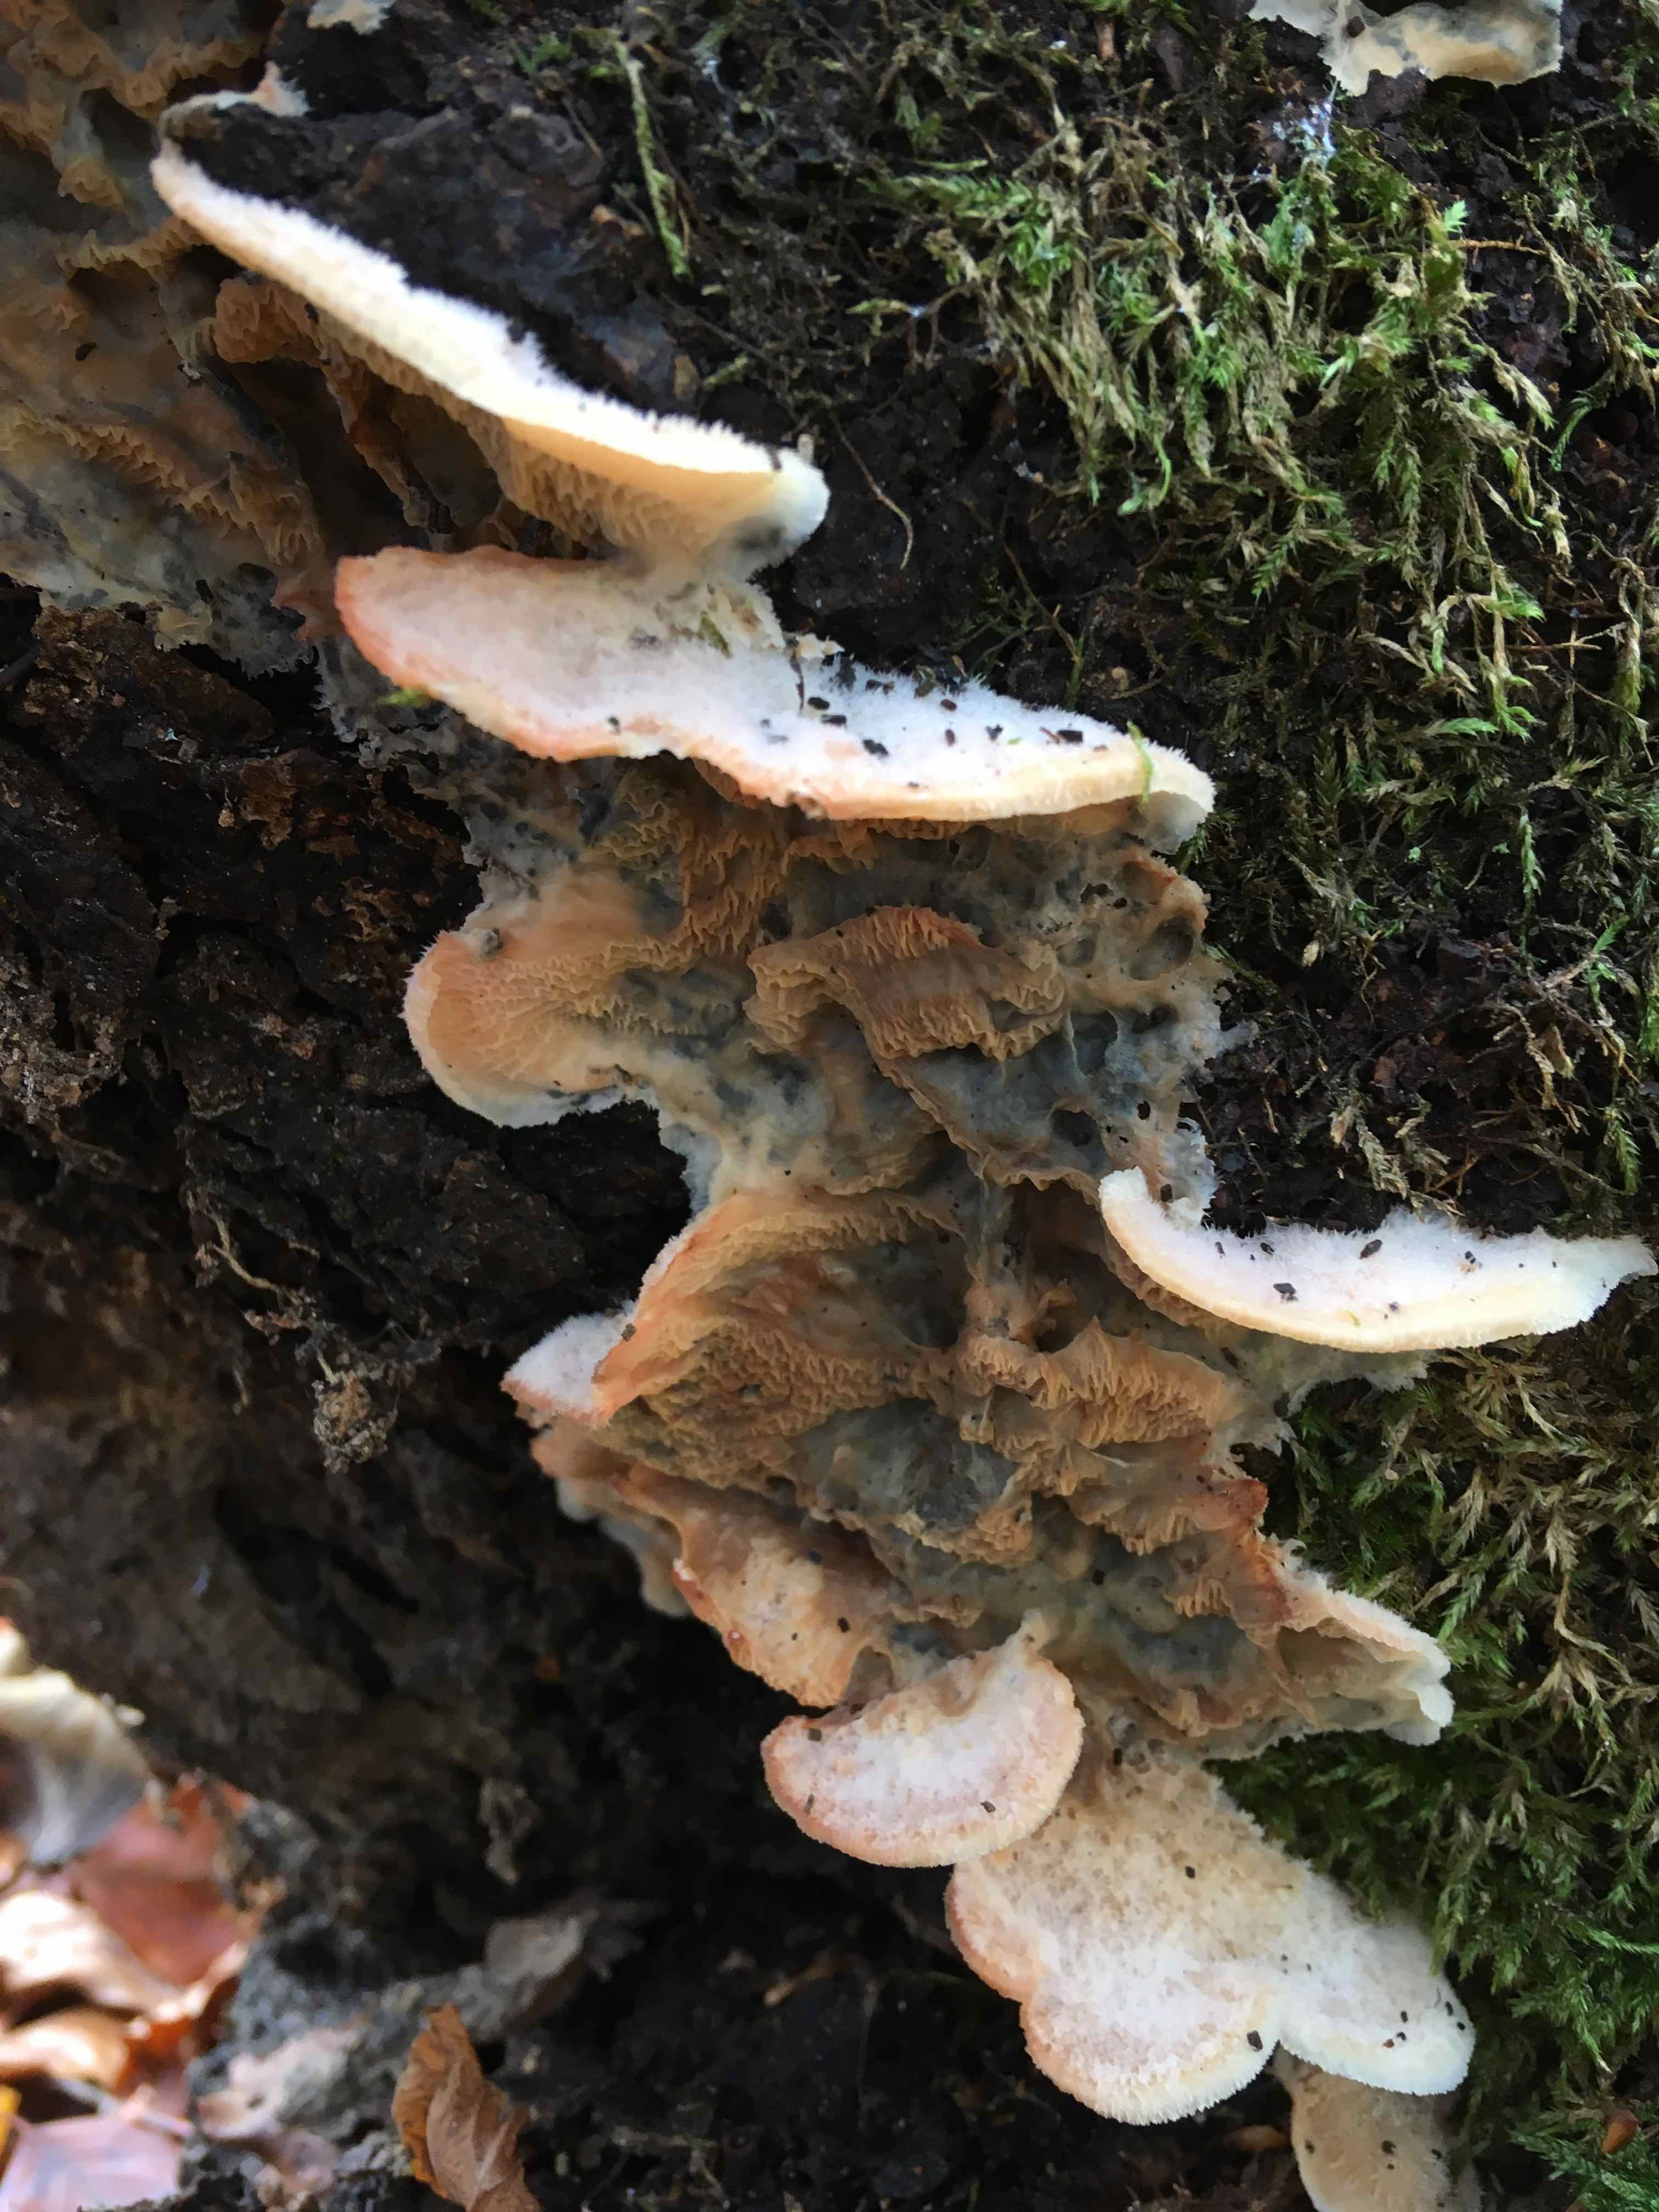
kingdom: Fungi
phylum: Basidiomycota
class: Agaricomycetes
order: Polyporales
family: Meruliaceae
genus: Phlebia
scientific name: Phlebia tremellosa
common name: bævrende åresvamp
